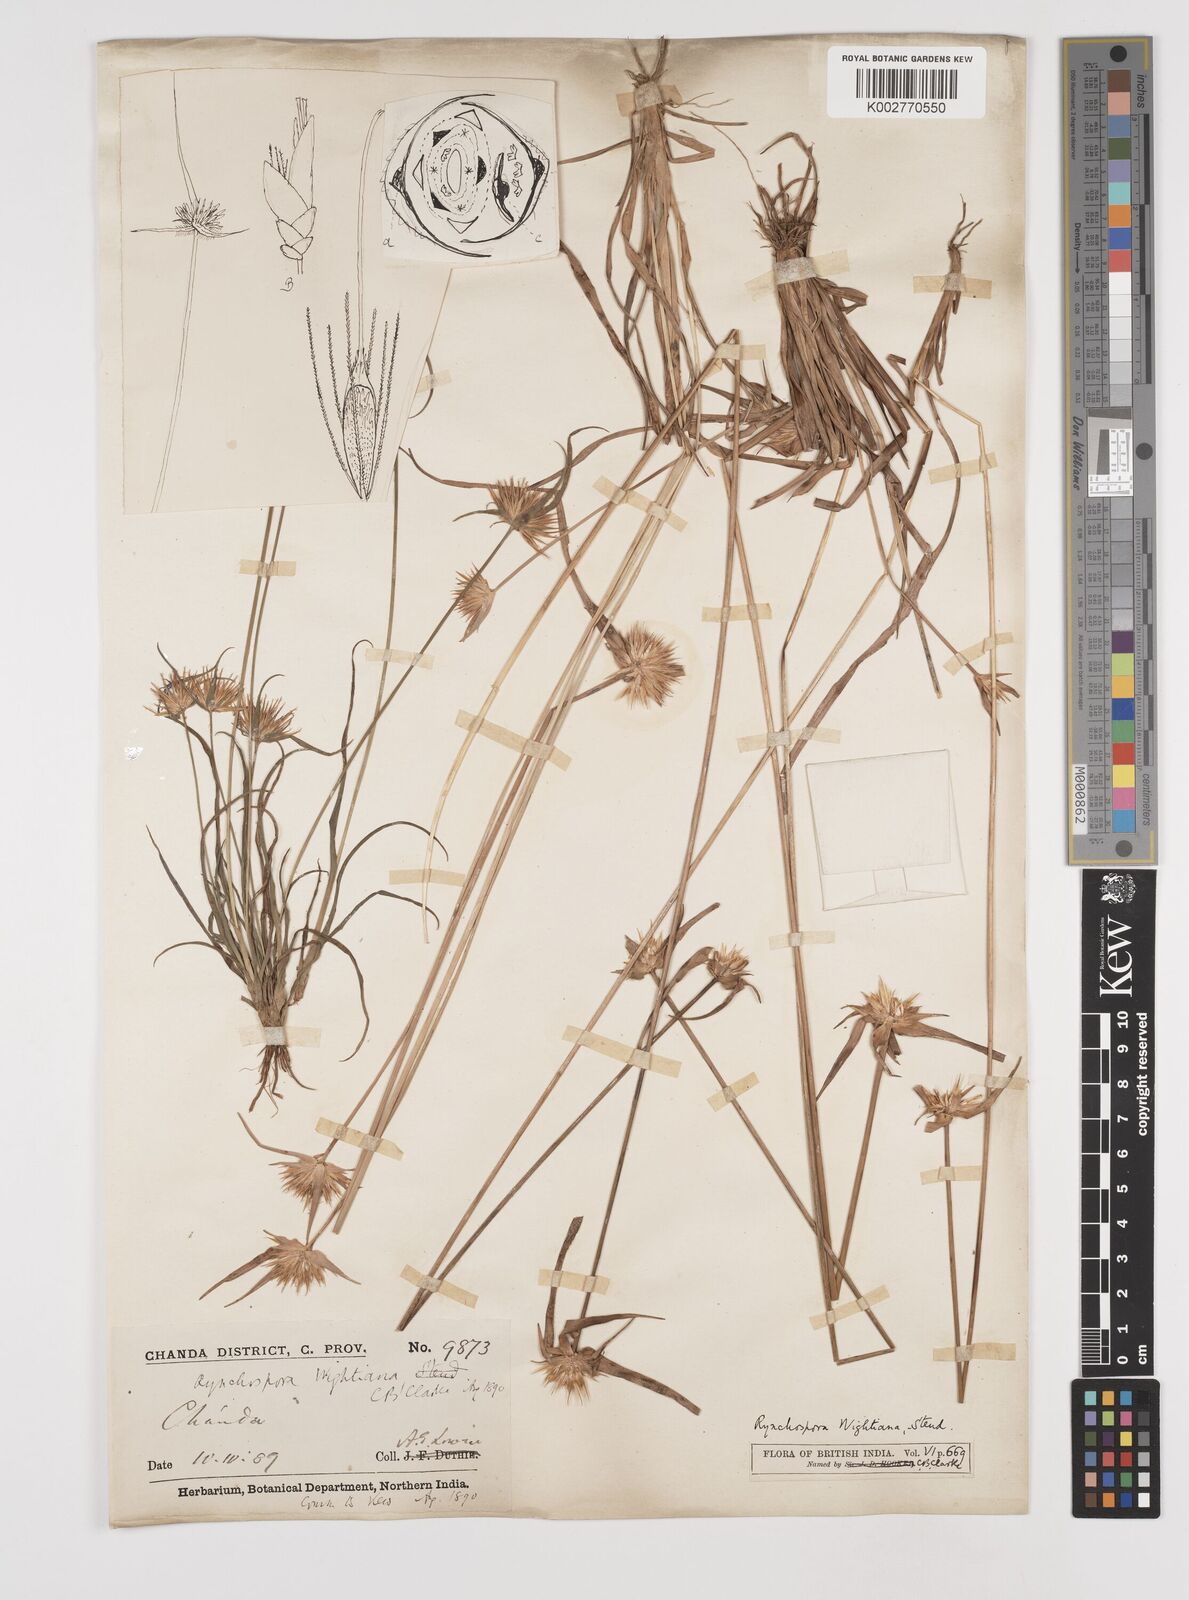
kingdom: Plantae
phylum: Tracheophyta
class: Liliopsida
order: Poales
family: Cyperaceae
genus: Rhynchospora
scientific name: Rhynchospora longisetis
